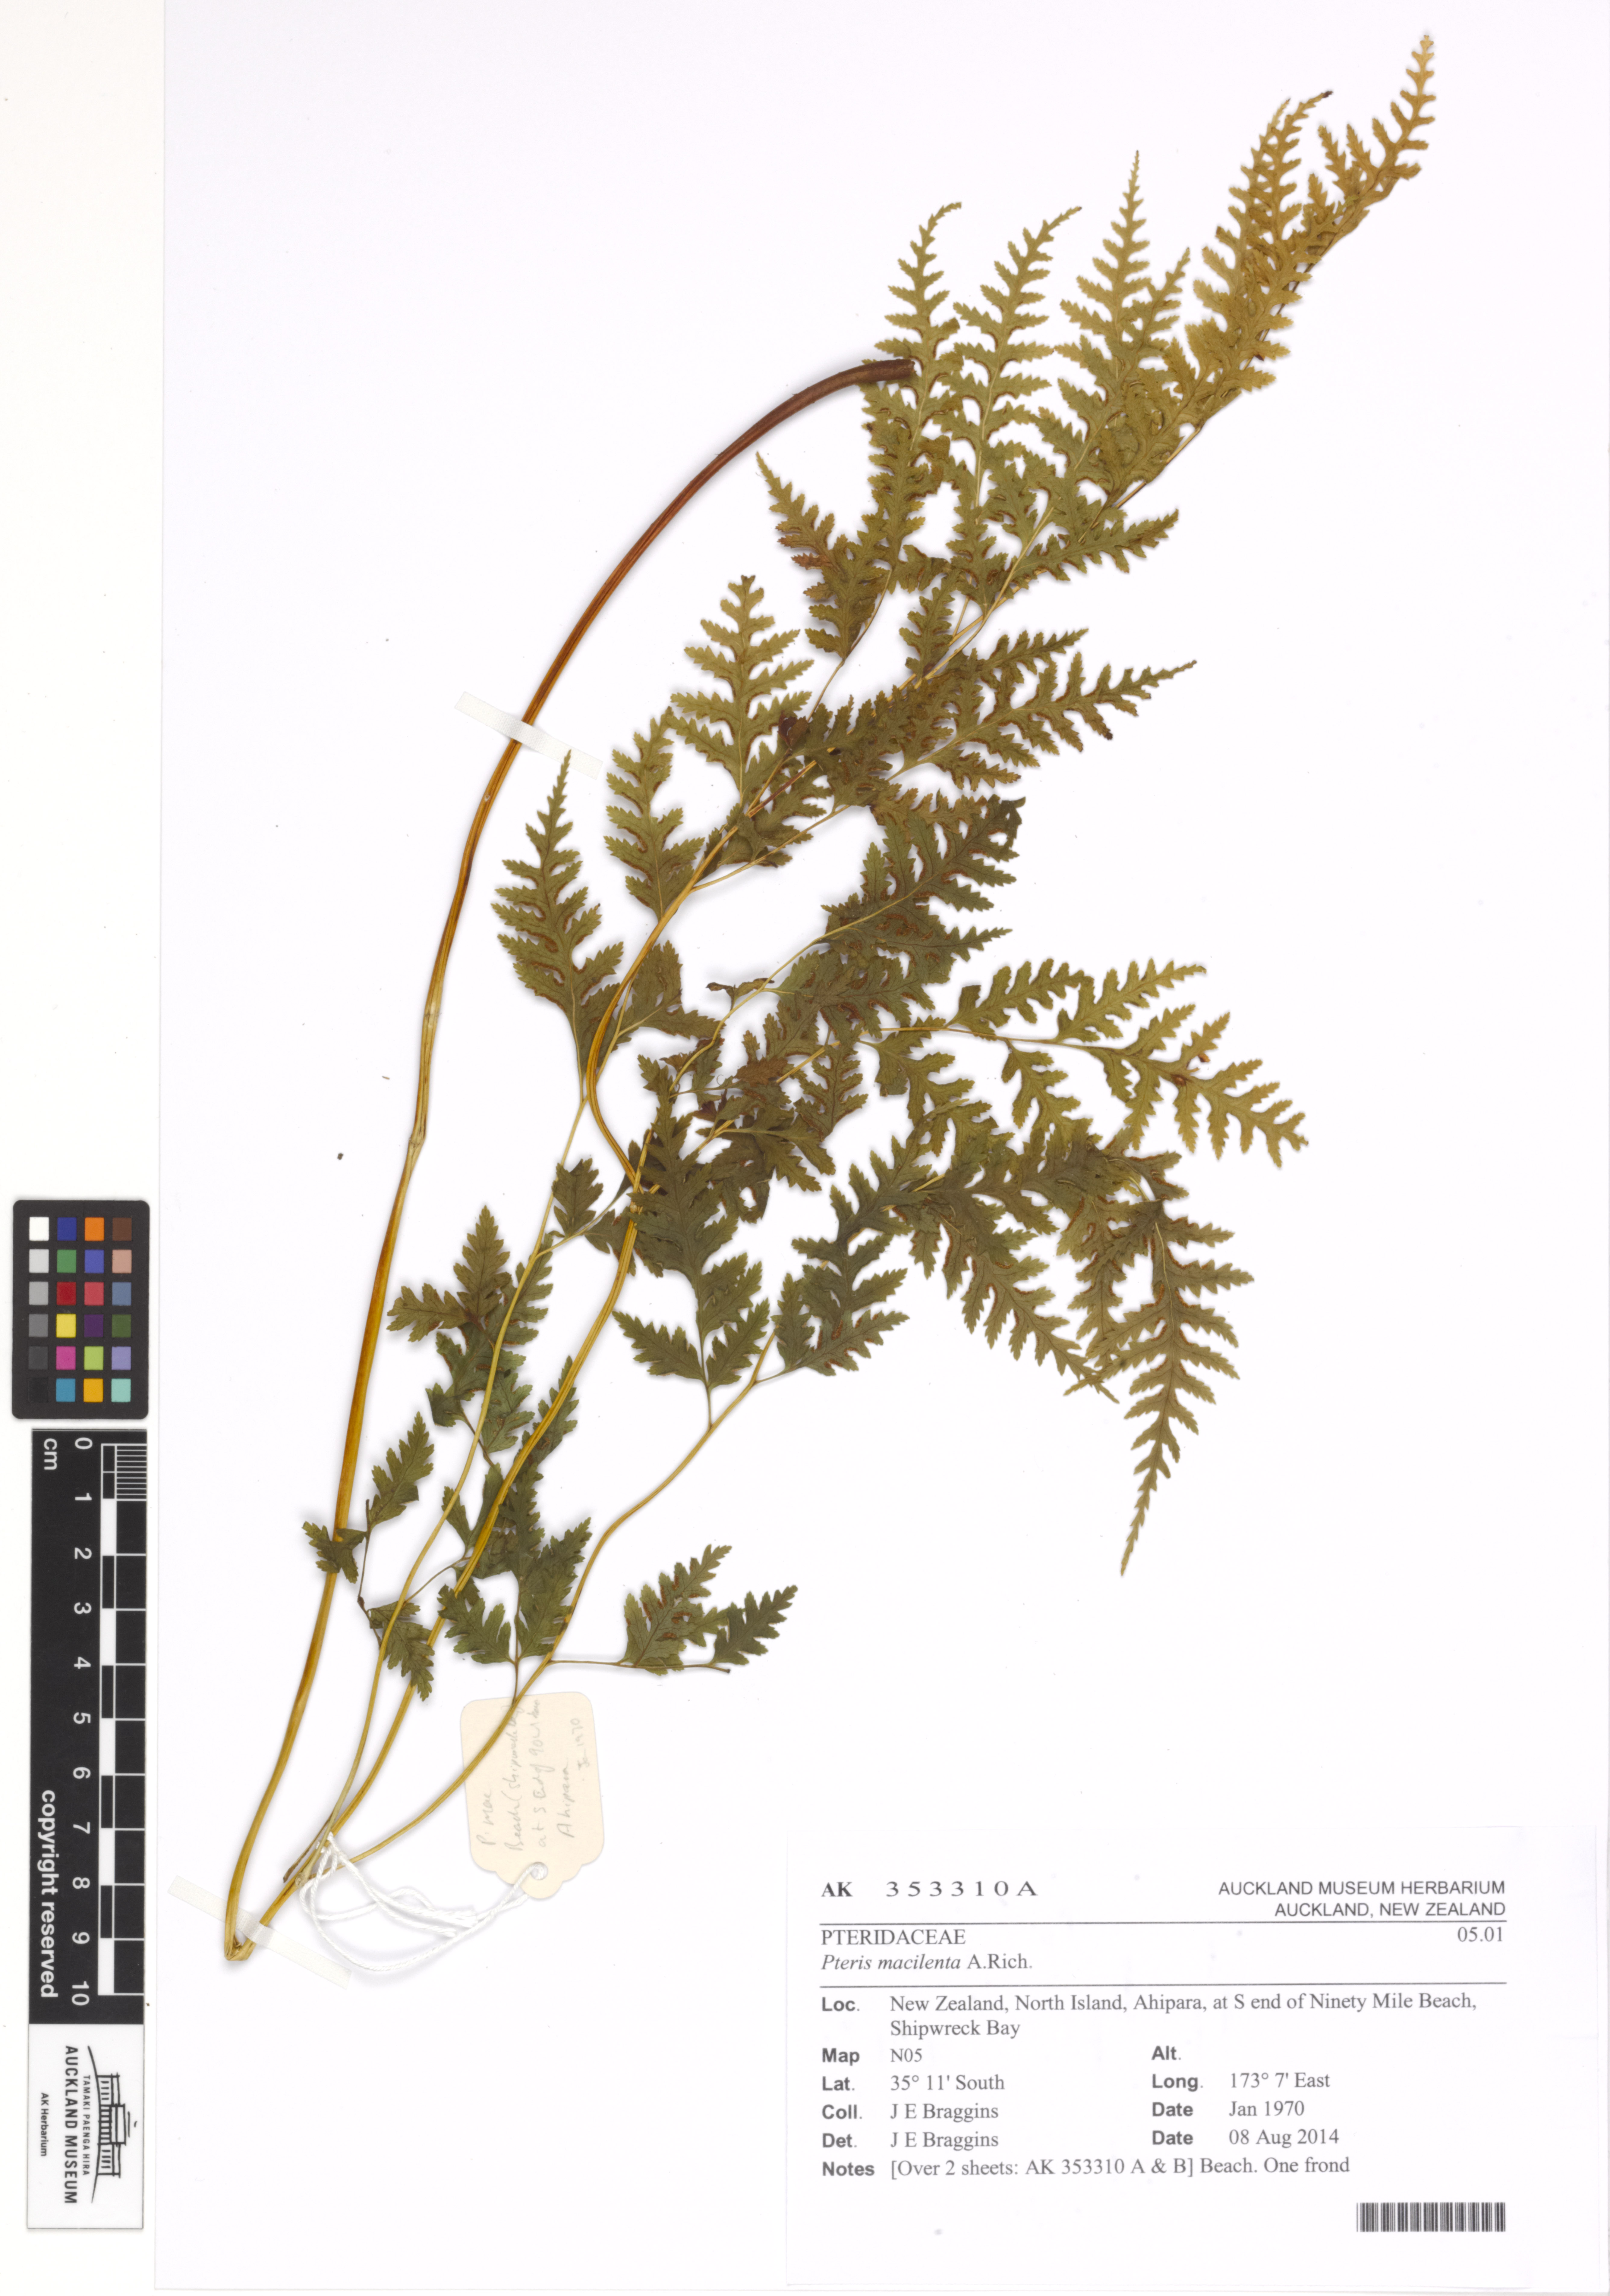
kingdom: Plantae
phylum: Tracheophyta
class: Polypodiopsida
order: Polypodiales
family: Pteridaceae
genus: Pteris
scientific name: Pteris macilenta
